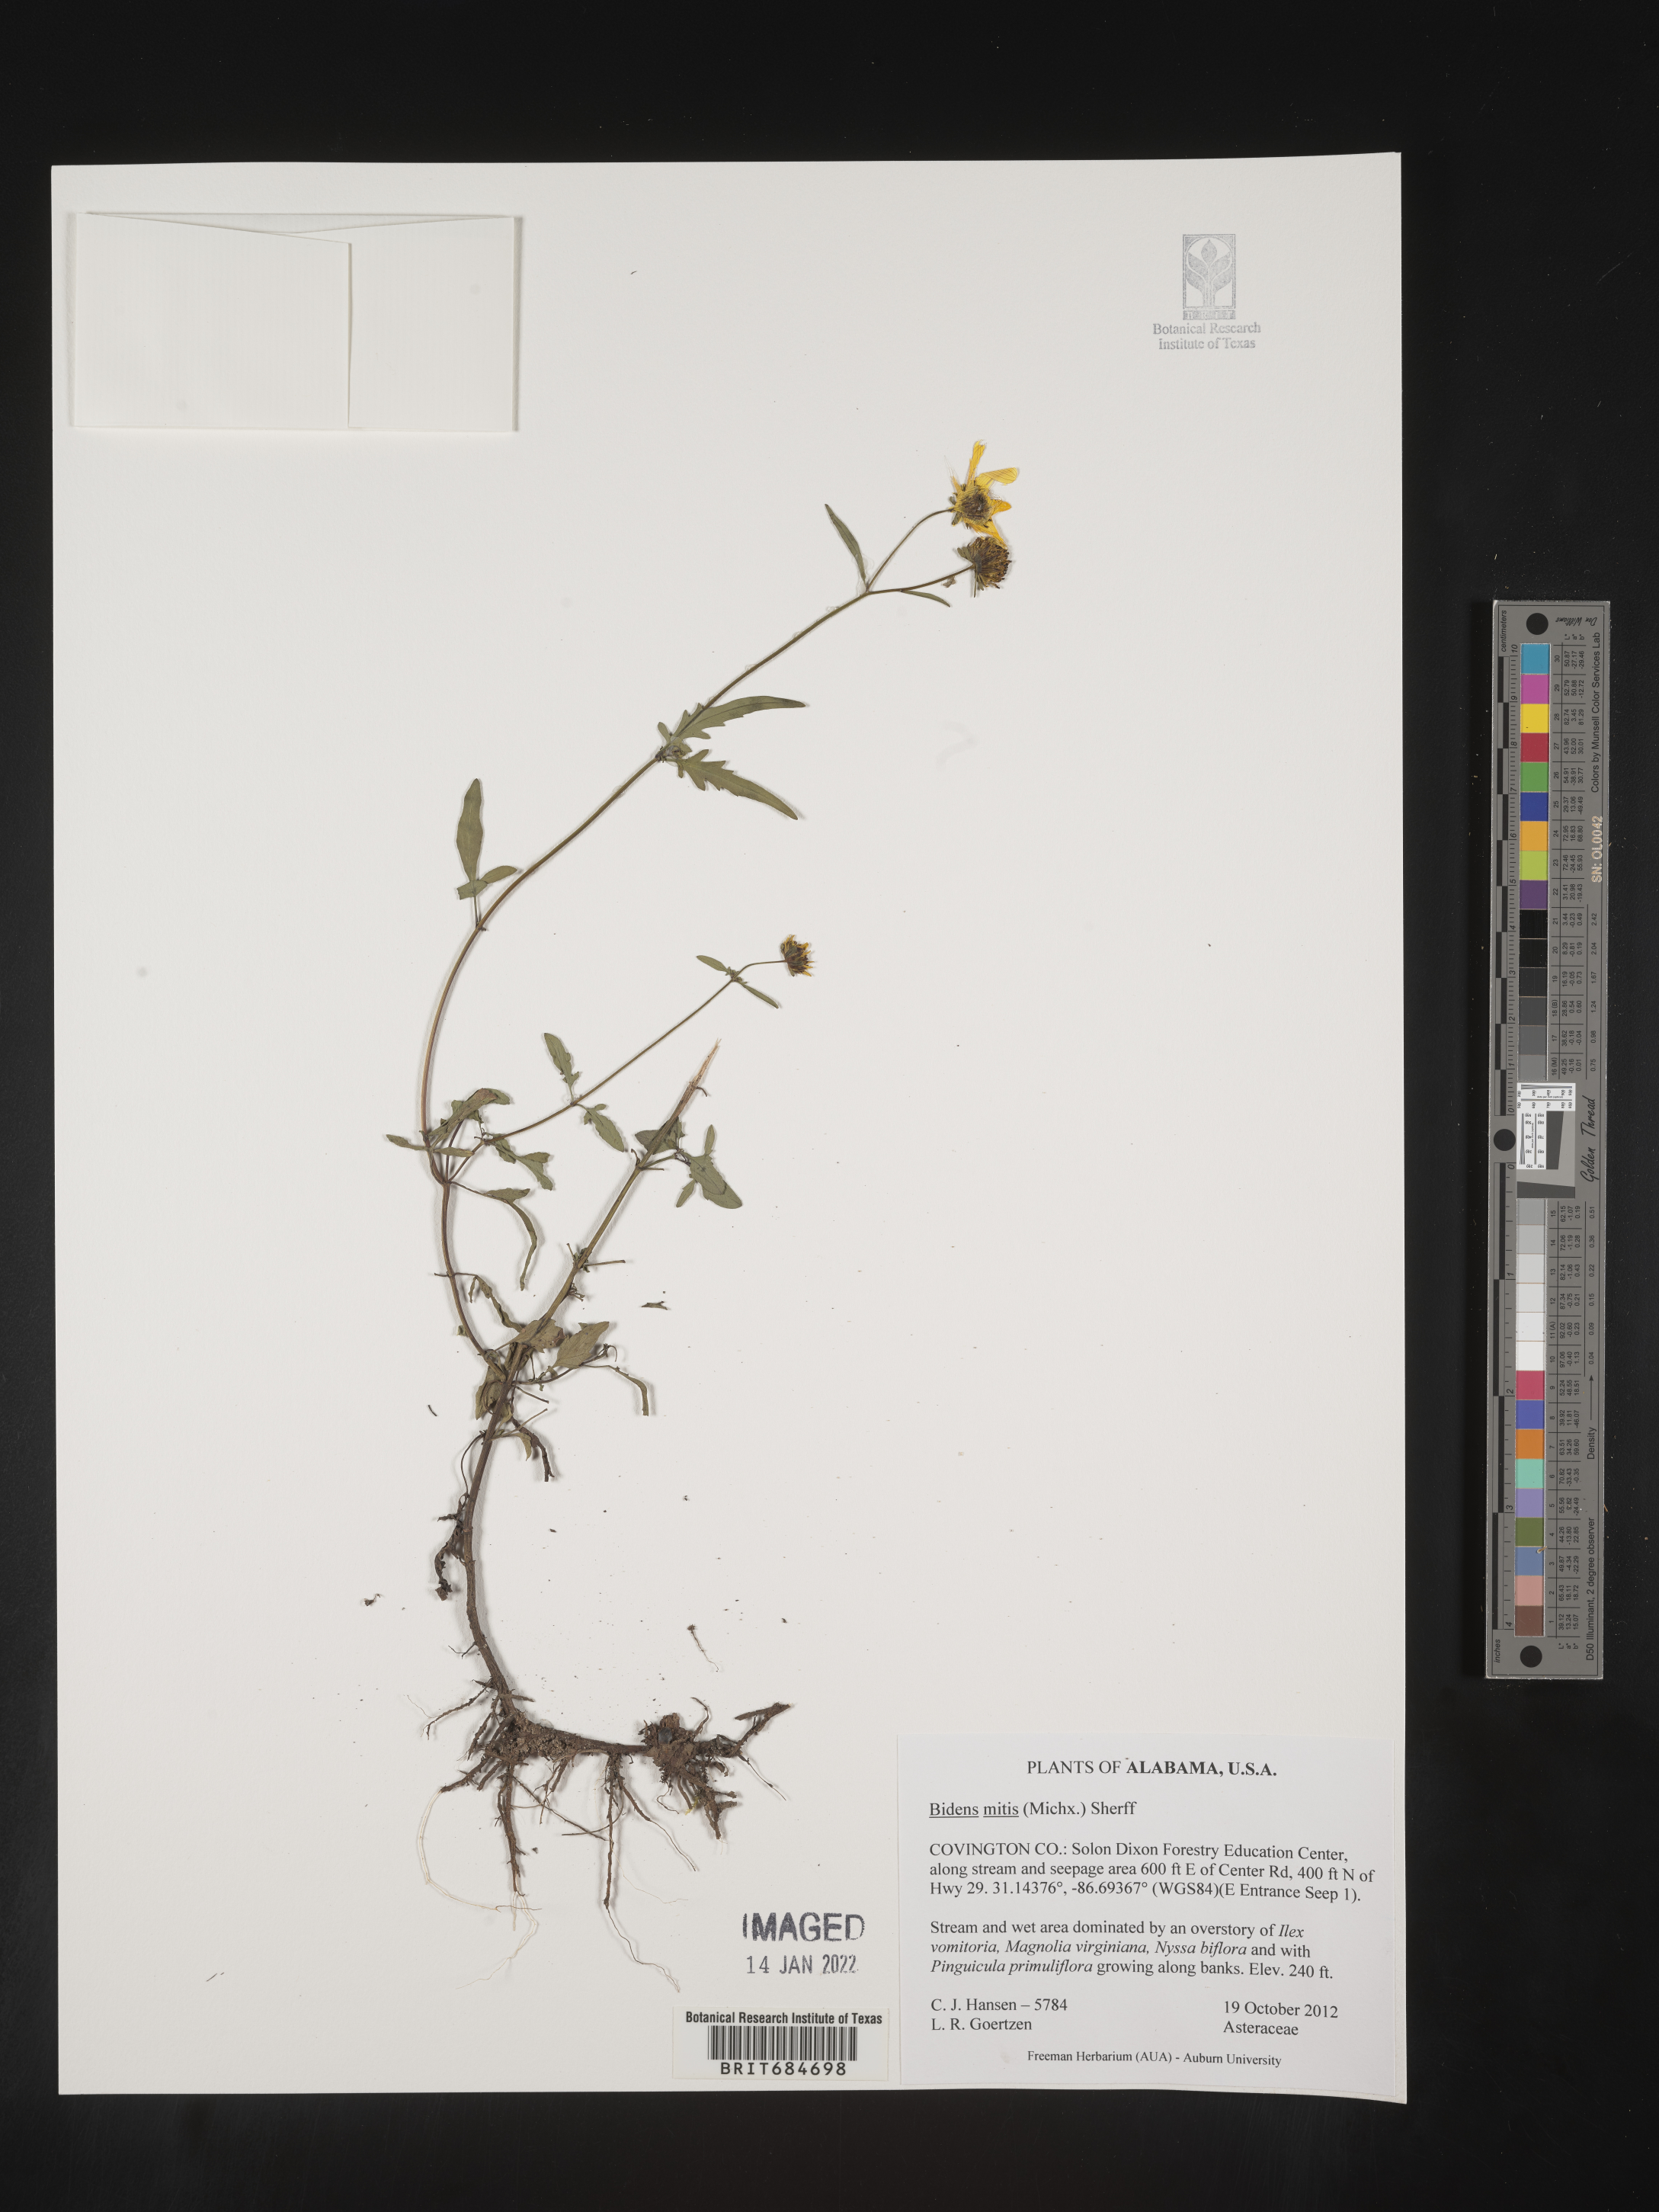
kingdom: Plantae
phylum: Tracheophyta
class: Magnoliopsida
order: Asterales
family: Asteraceae
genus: Bidens
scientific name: Bidens mitis
